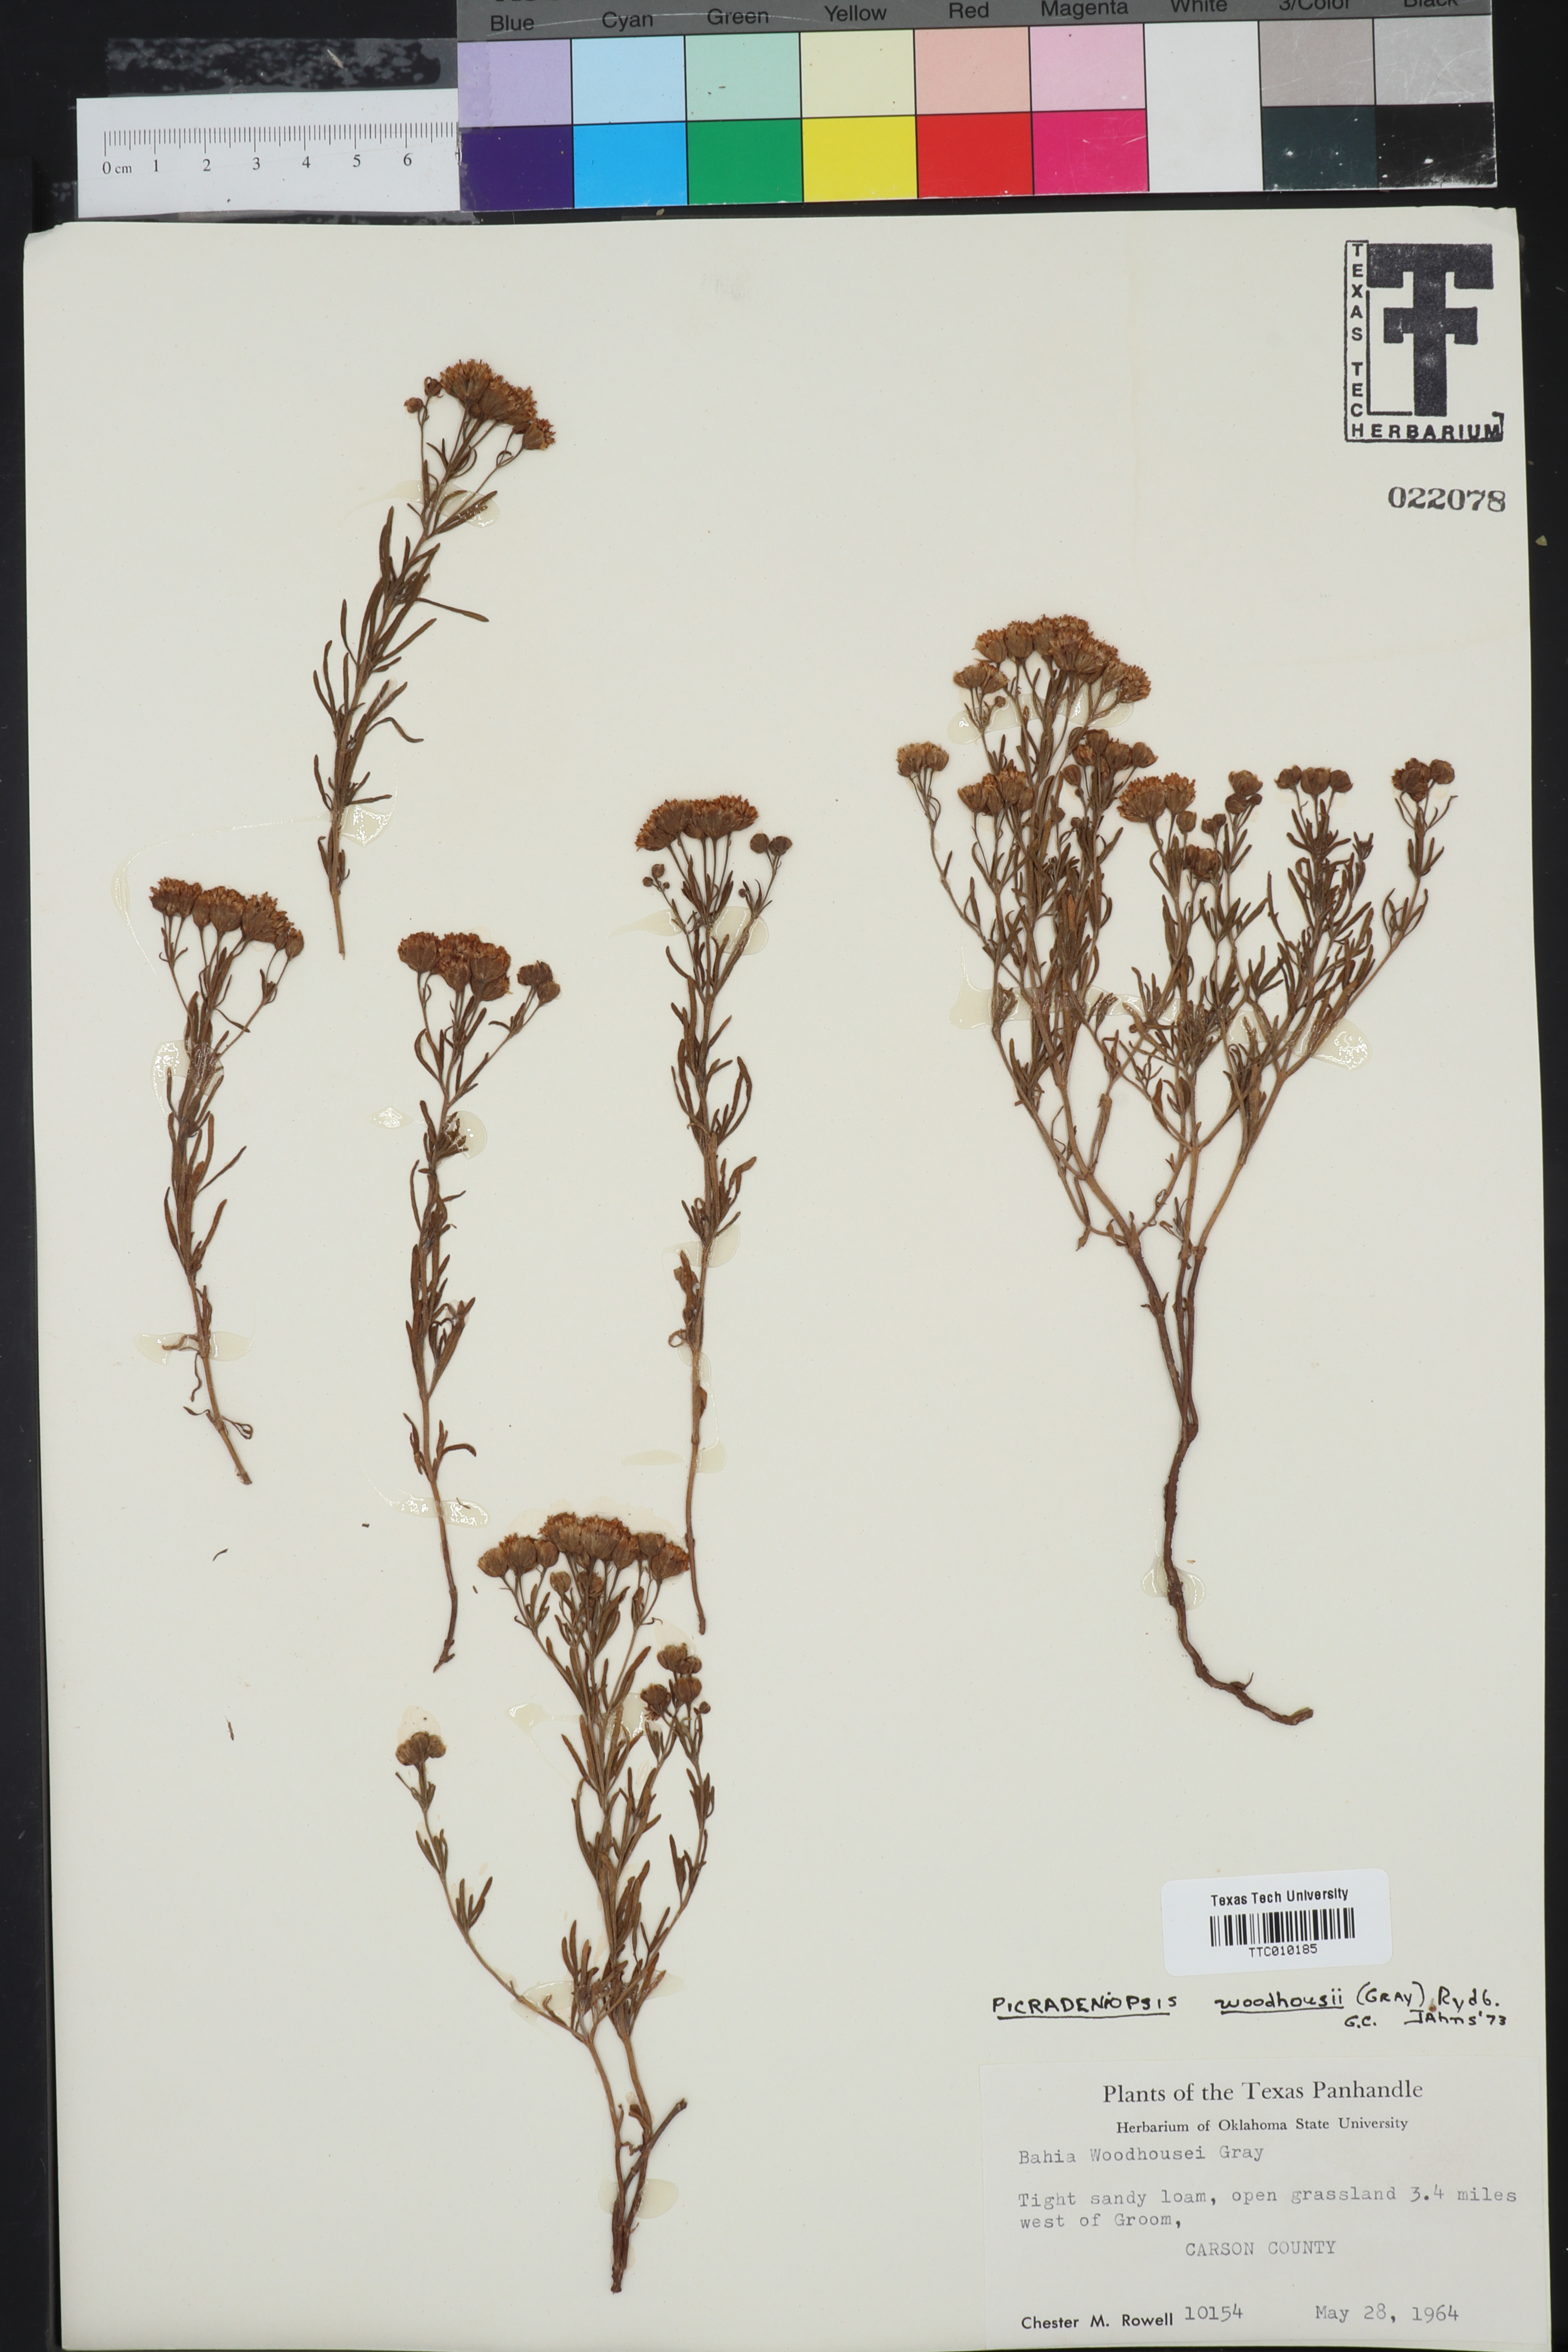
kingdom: Plantae
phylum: Tracheophyta
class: Magnoliopsida
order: Asterales
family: Asteraceae
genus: Picradeniopsis
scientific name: Picradeniopsis woodhousei
